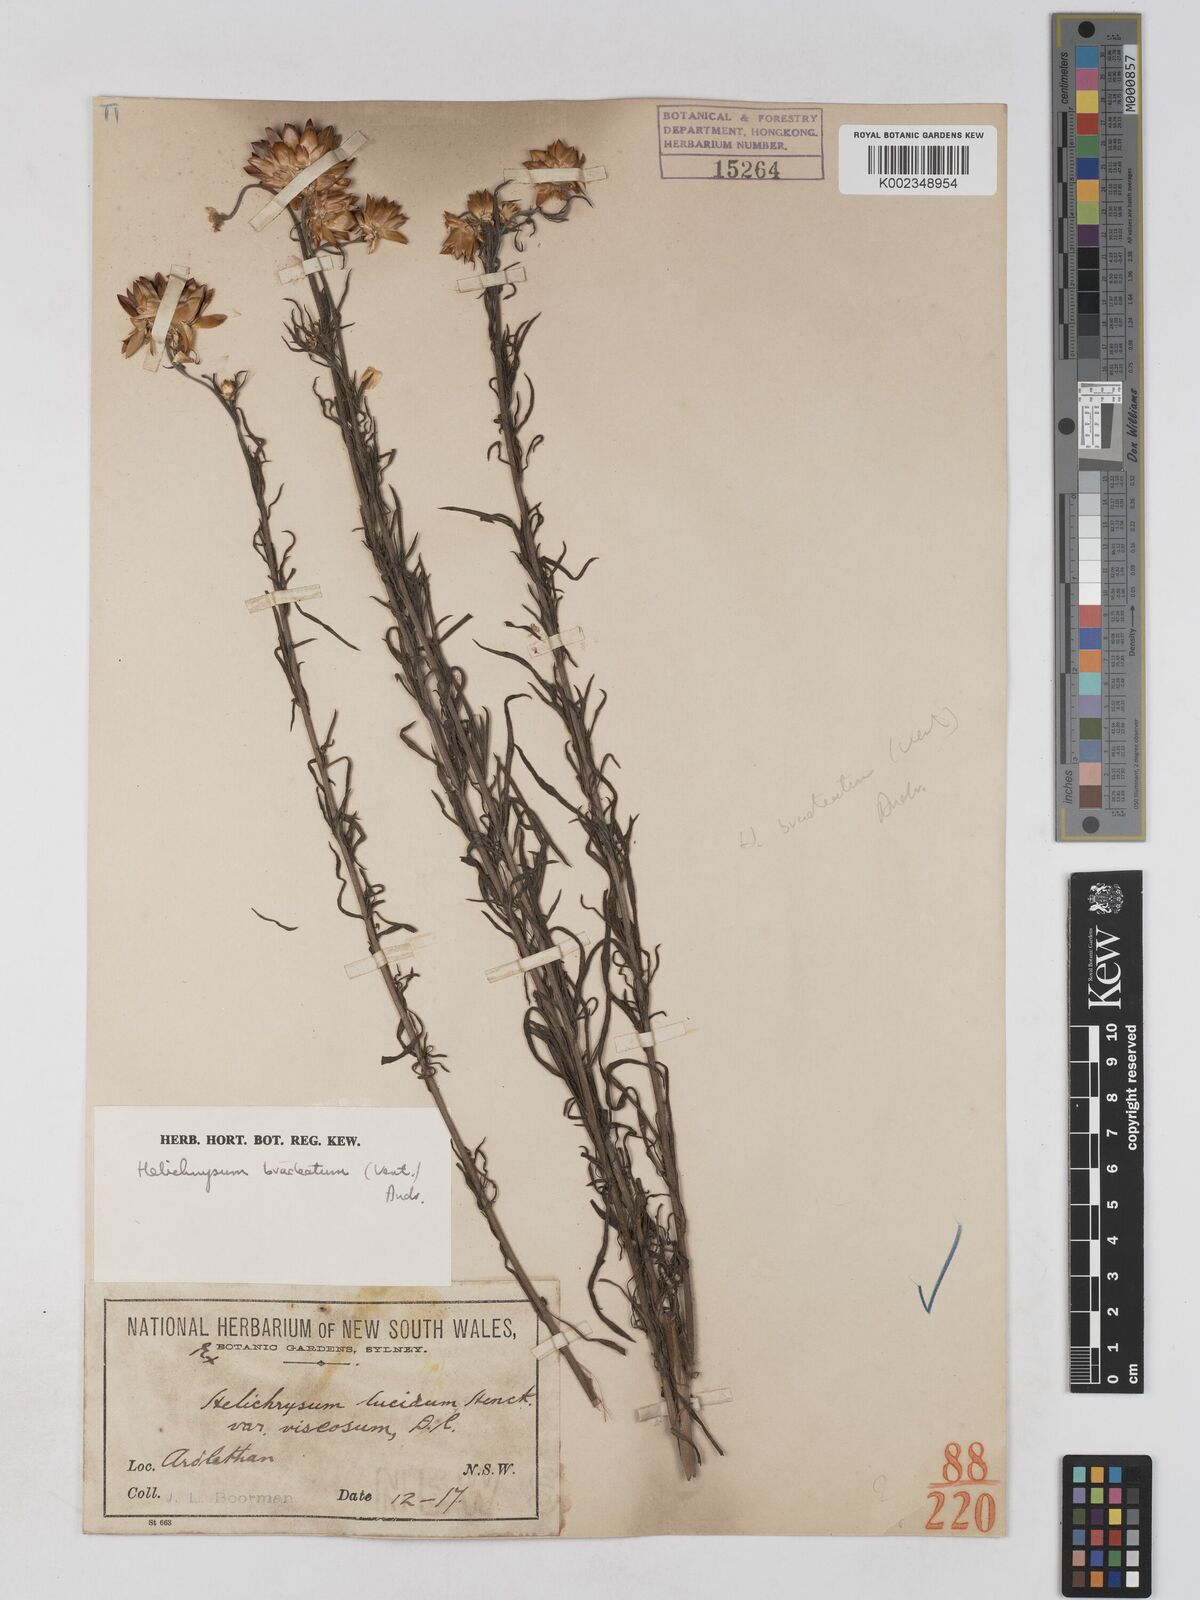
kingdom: Plantae
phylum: Tracheophyta
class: Magnoliopsida
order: Asterales
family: Asteraceae
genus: Xerochrysum
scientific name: Xerochrysum bracteatum
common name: Bracted strawflower
